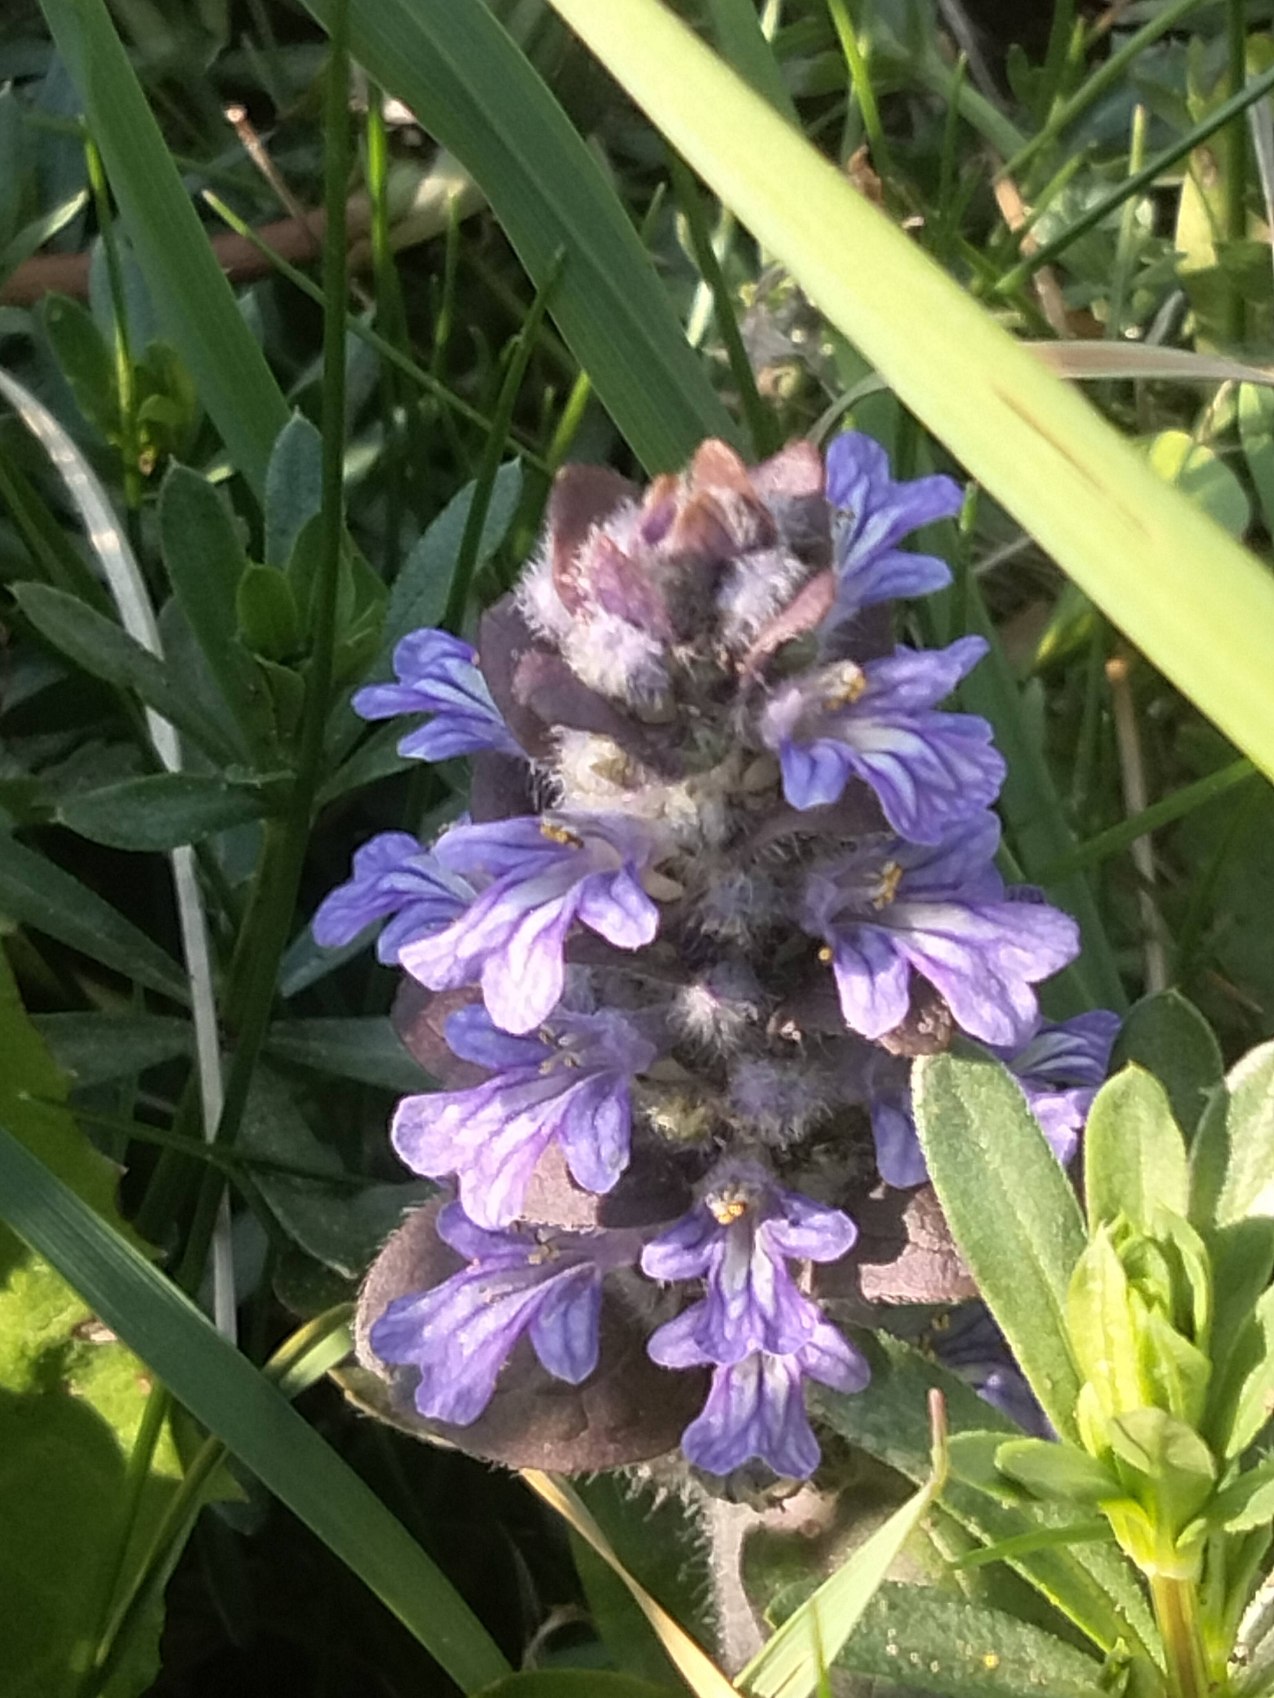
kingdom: Plantae
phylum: Tracheophyta
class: Magnoliopsida
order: Lamiales
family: Lamiaceae
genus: Ajuga
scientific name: Ajuga reptans
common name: Krybende læbeløs
